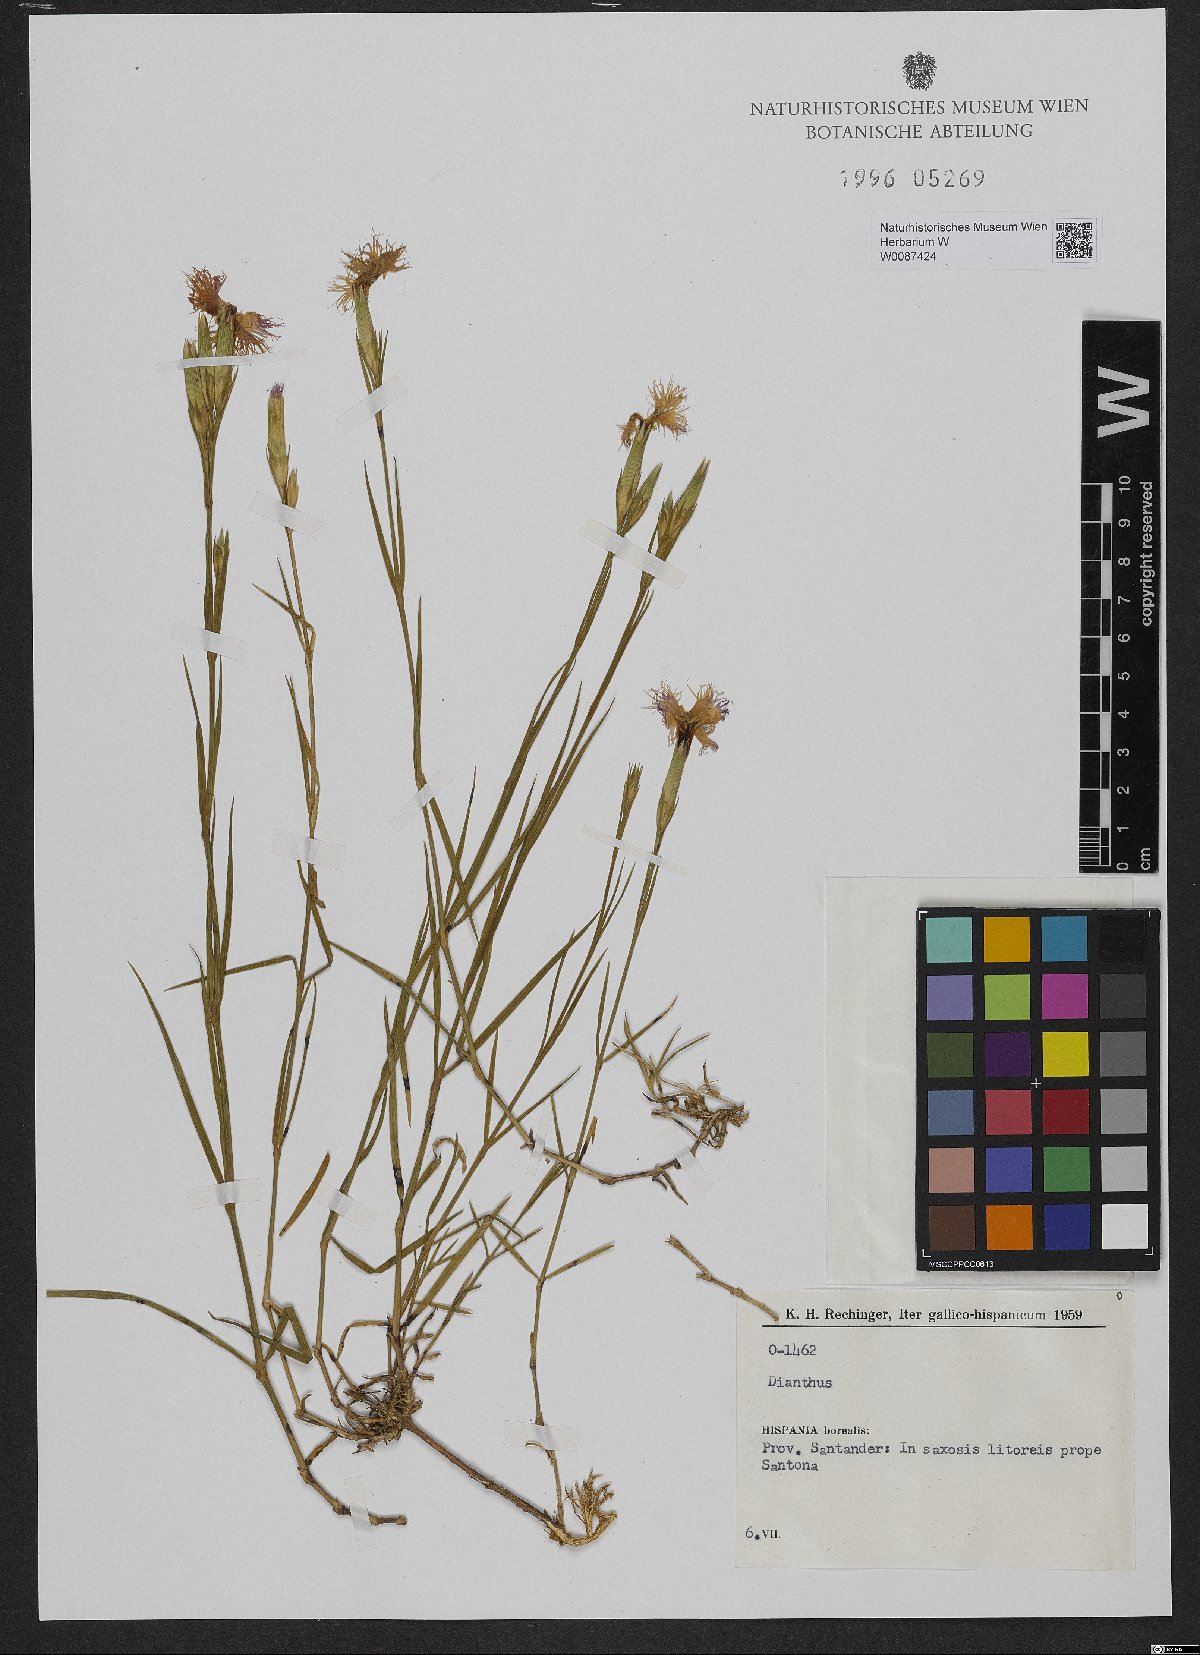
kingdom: Plantae
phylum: Tracheophyta
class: Magnoliopsida
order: Caryophyllales
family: Caryophyllaceae
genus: Dianthus
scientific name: Dianthus
